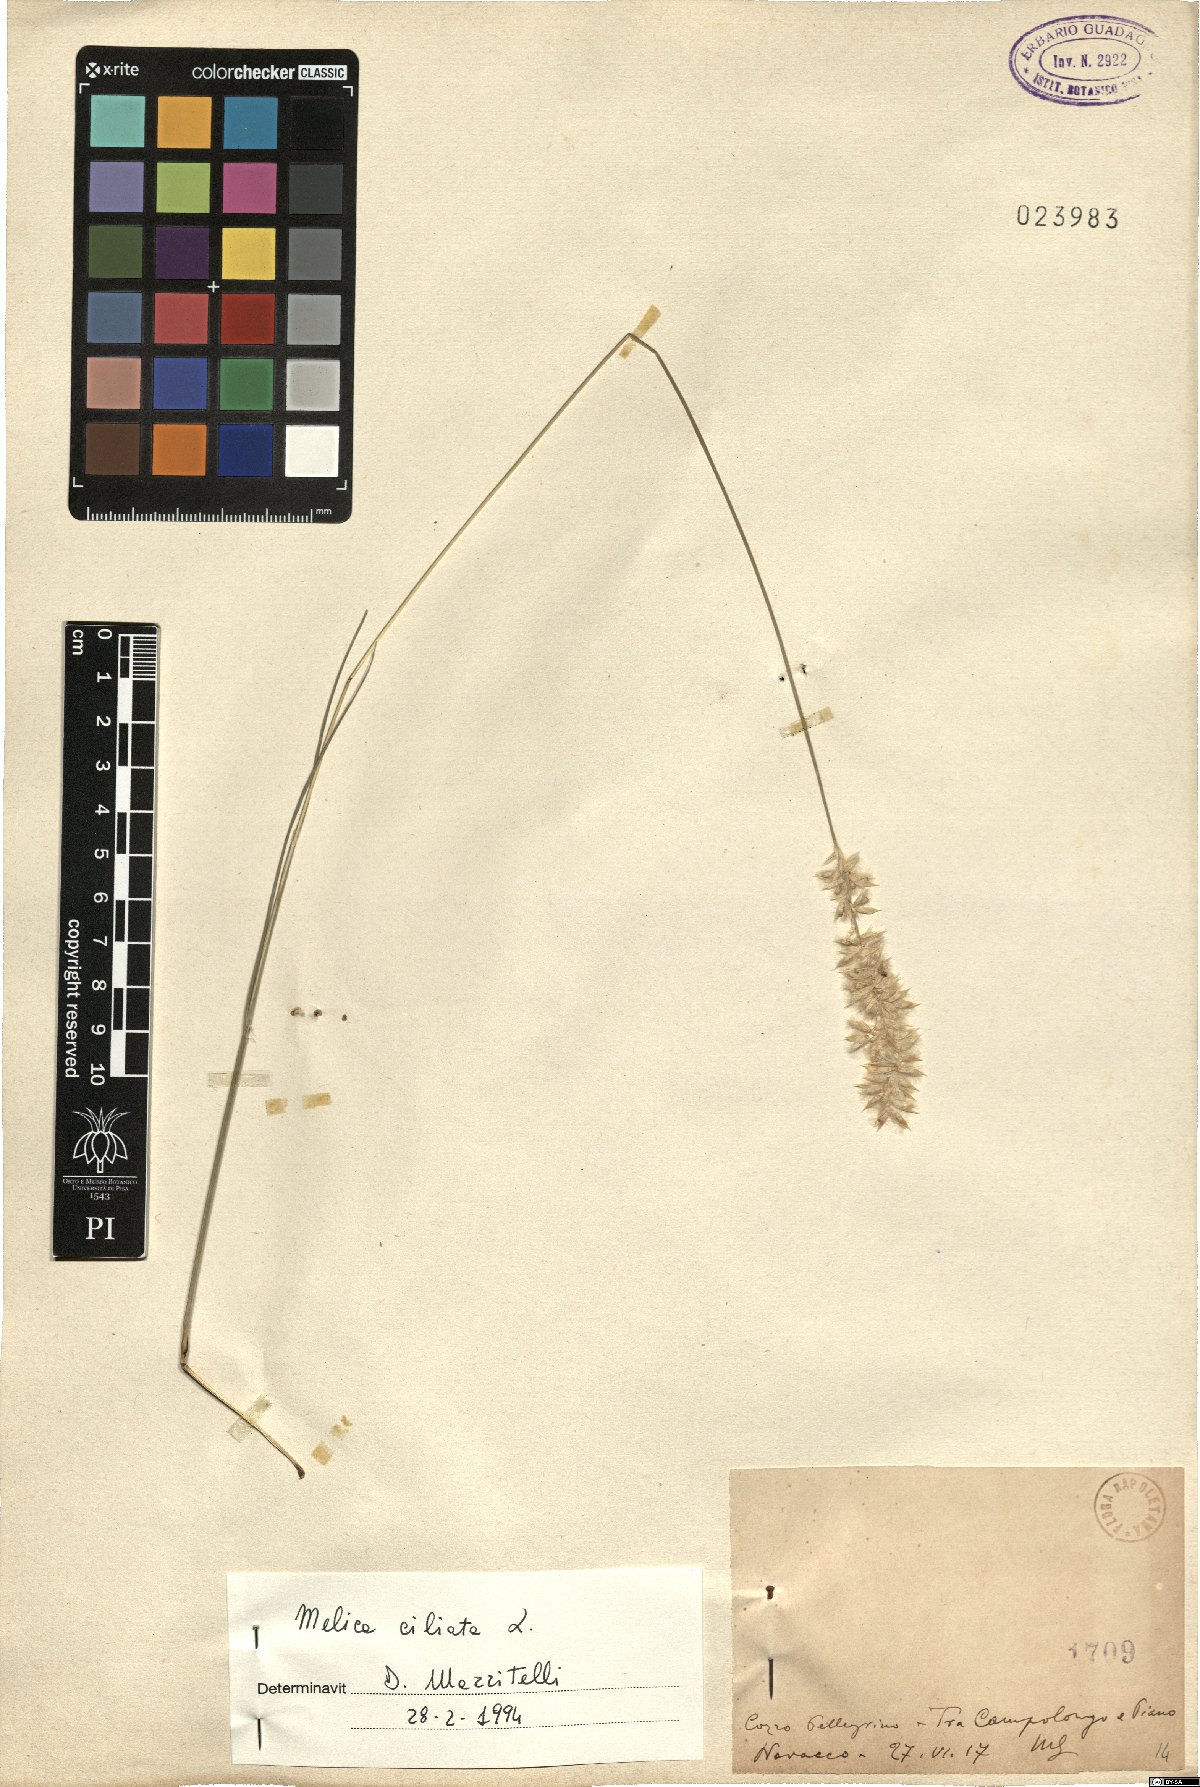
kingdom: Plantae
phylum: Tracheophyta
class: Liliopsida
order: Poales
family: Poaceae
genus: Melica
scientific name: Melica ciliata
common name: Hairy melicgrass
